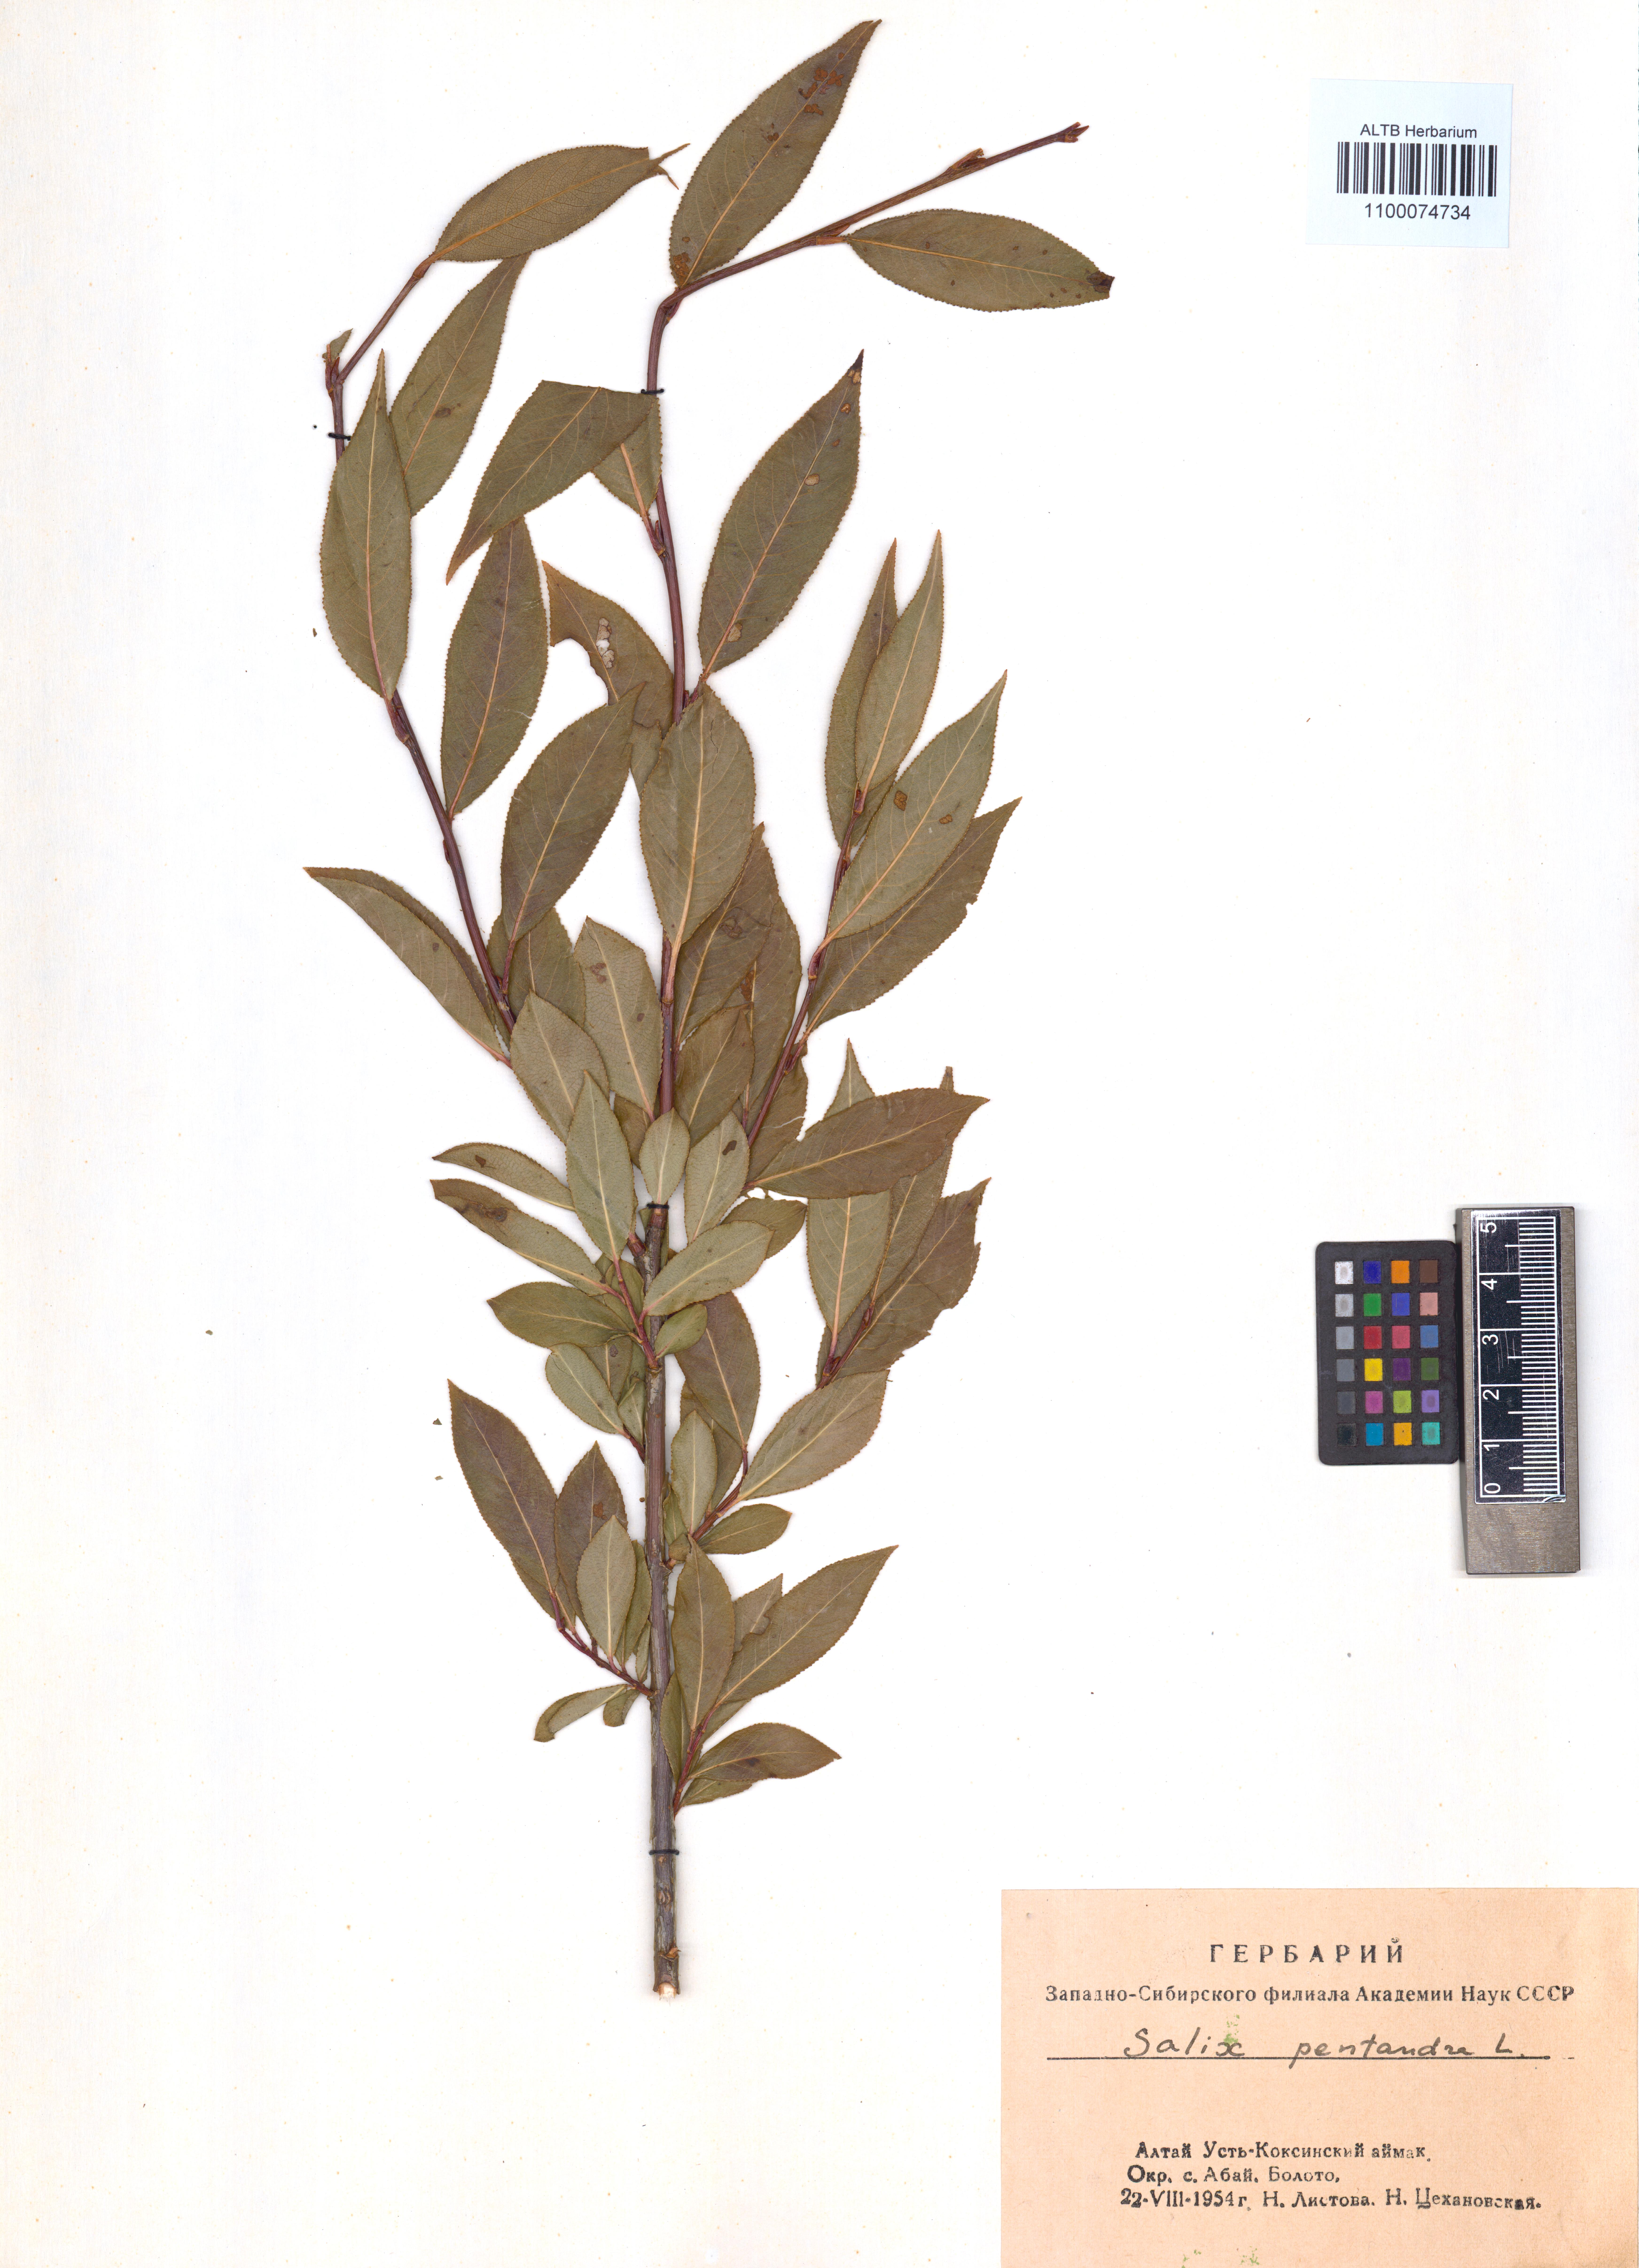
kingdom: Plantae
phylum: Tracheophyta
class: Magnoliopsida
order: Malpighiales
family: Salicaceae
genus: Salix
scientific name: Salix pentandra
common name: Bay willow
